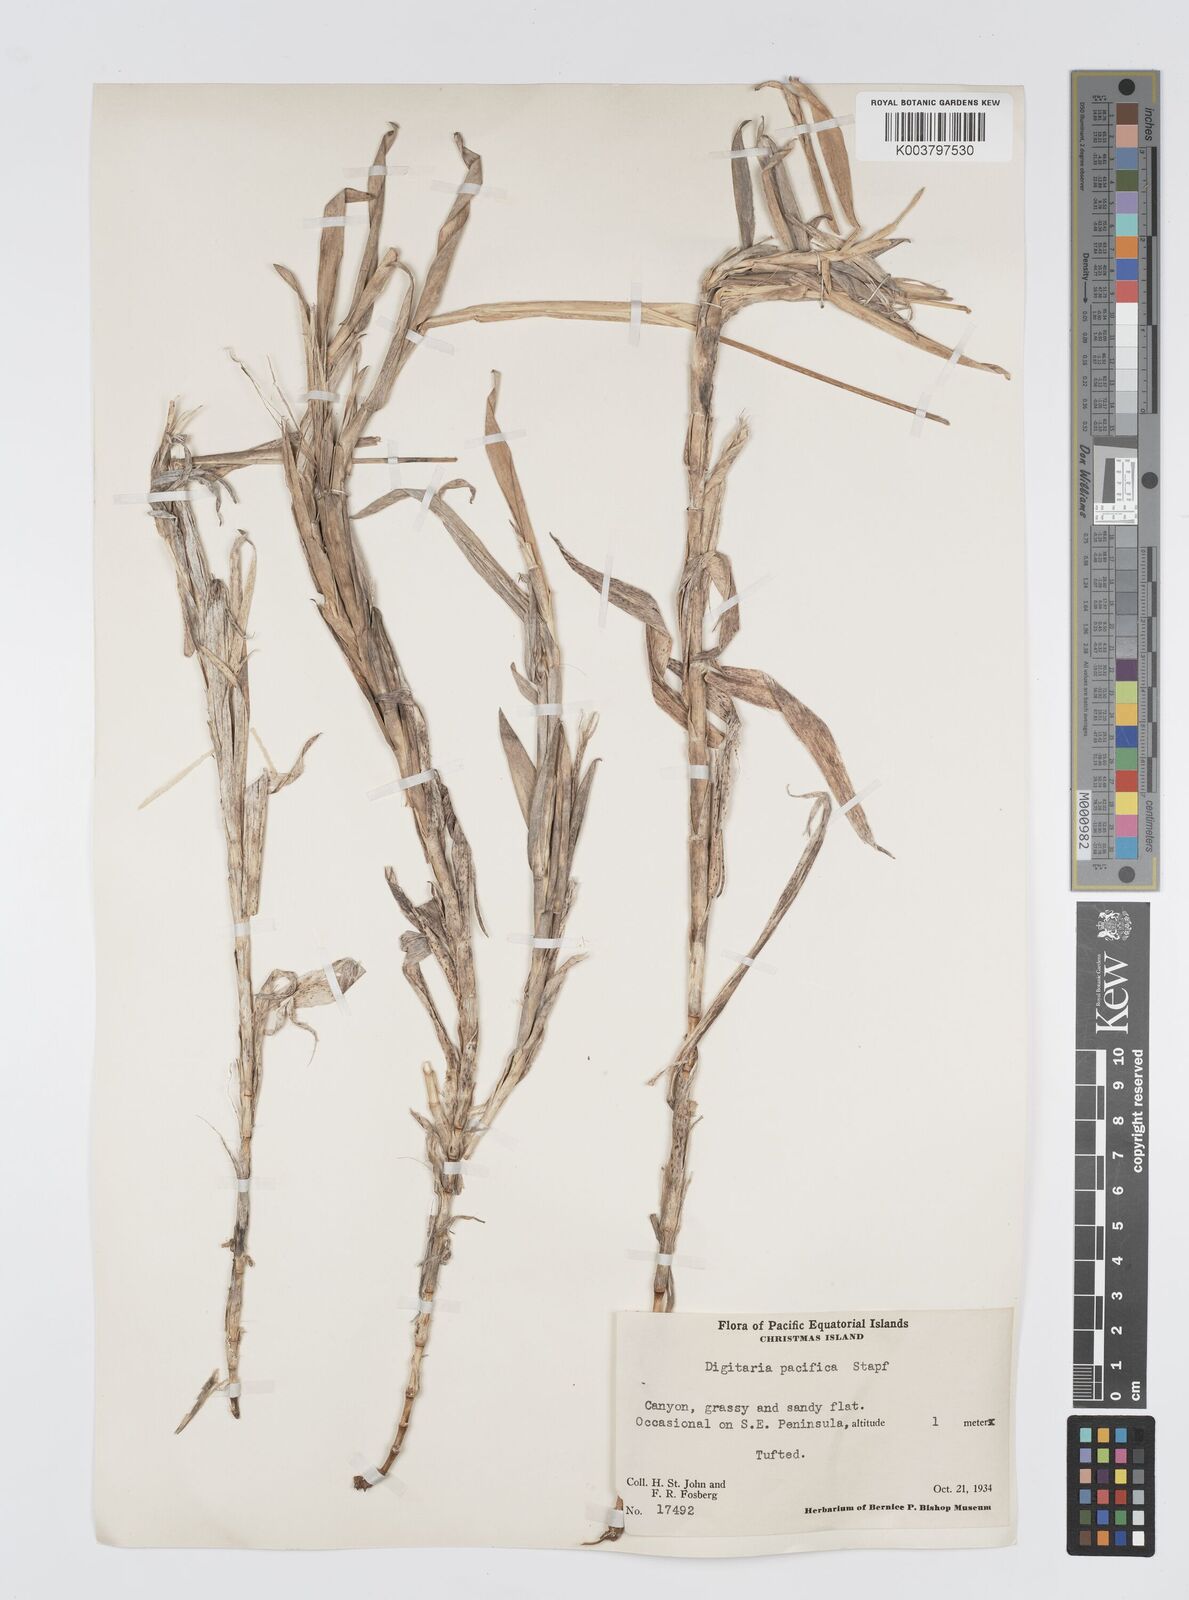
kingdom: Plantae
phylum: Tracheophyta
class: Liliopsida
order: Poales
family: Poaceae
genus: Digitaria
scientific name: Digitaria stenotaphrodes
